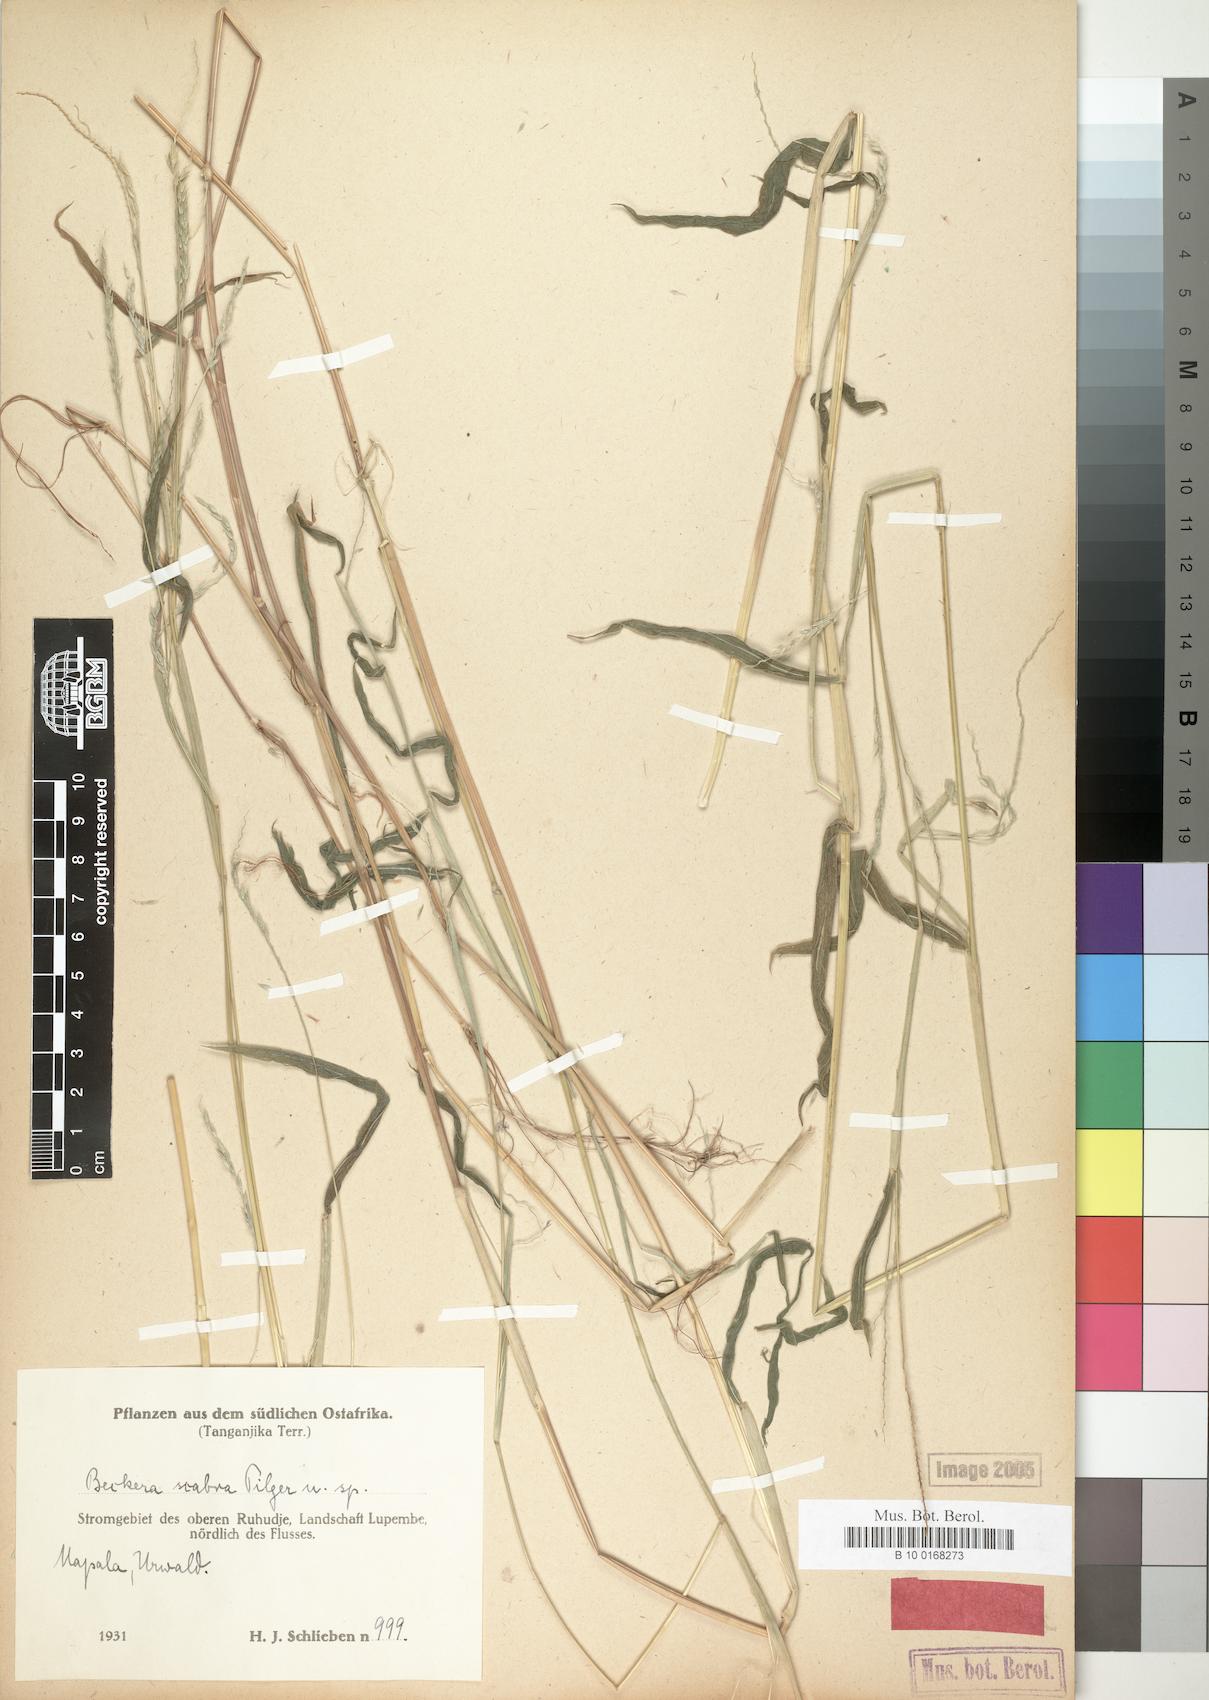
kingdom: Plantae
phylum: Tracheophyta
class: Liliopsida
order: Poales
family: Poaceae
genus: Snowdenia
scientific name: Snowdenia petitiana
